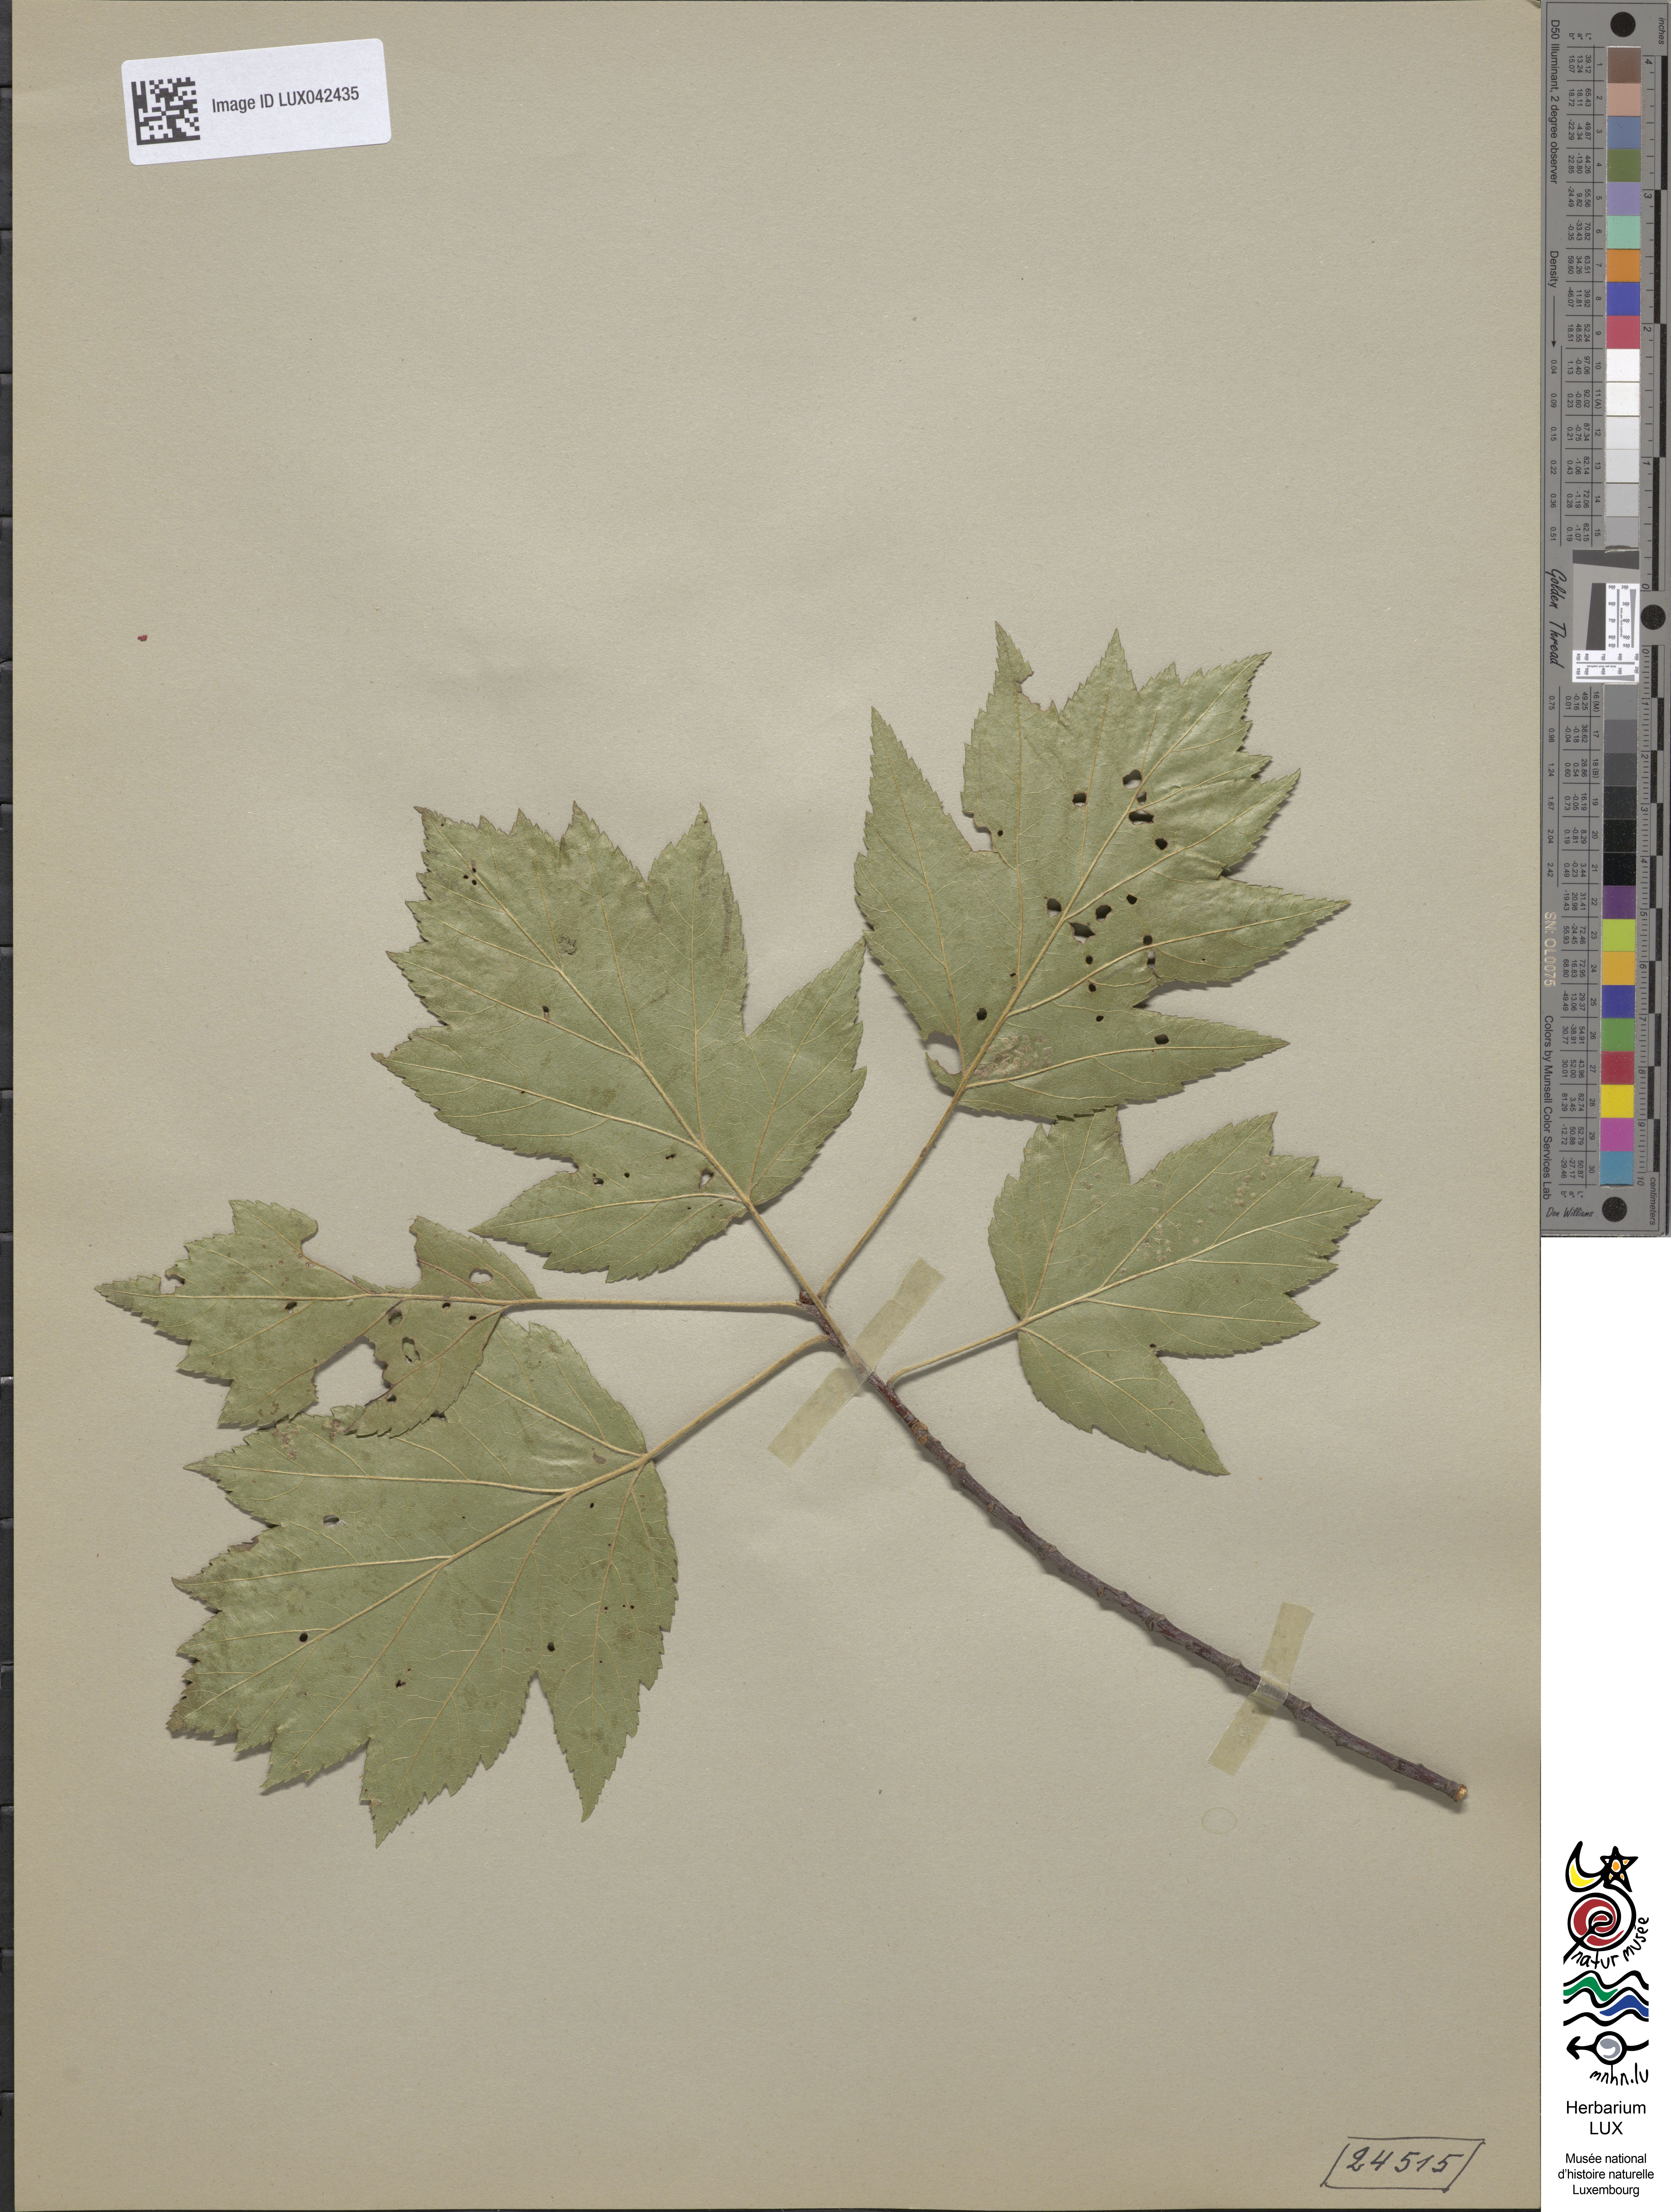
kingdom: Plantae
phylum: Tracheophyta
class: Magnoliopsida
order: Rosales
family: Rosaceae
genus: Torminalis
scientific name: Torminalis glaberrima
